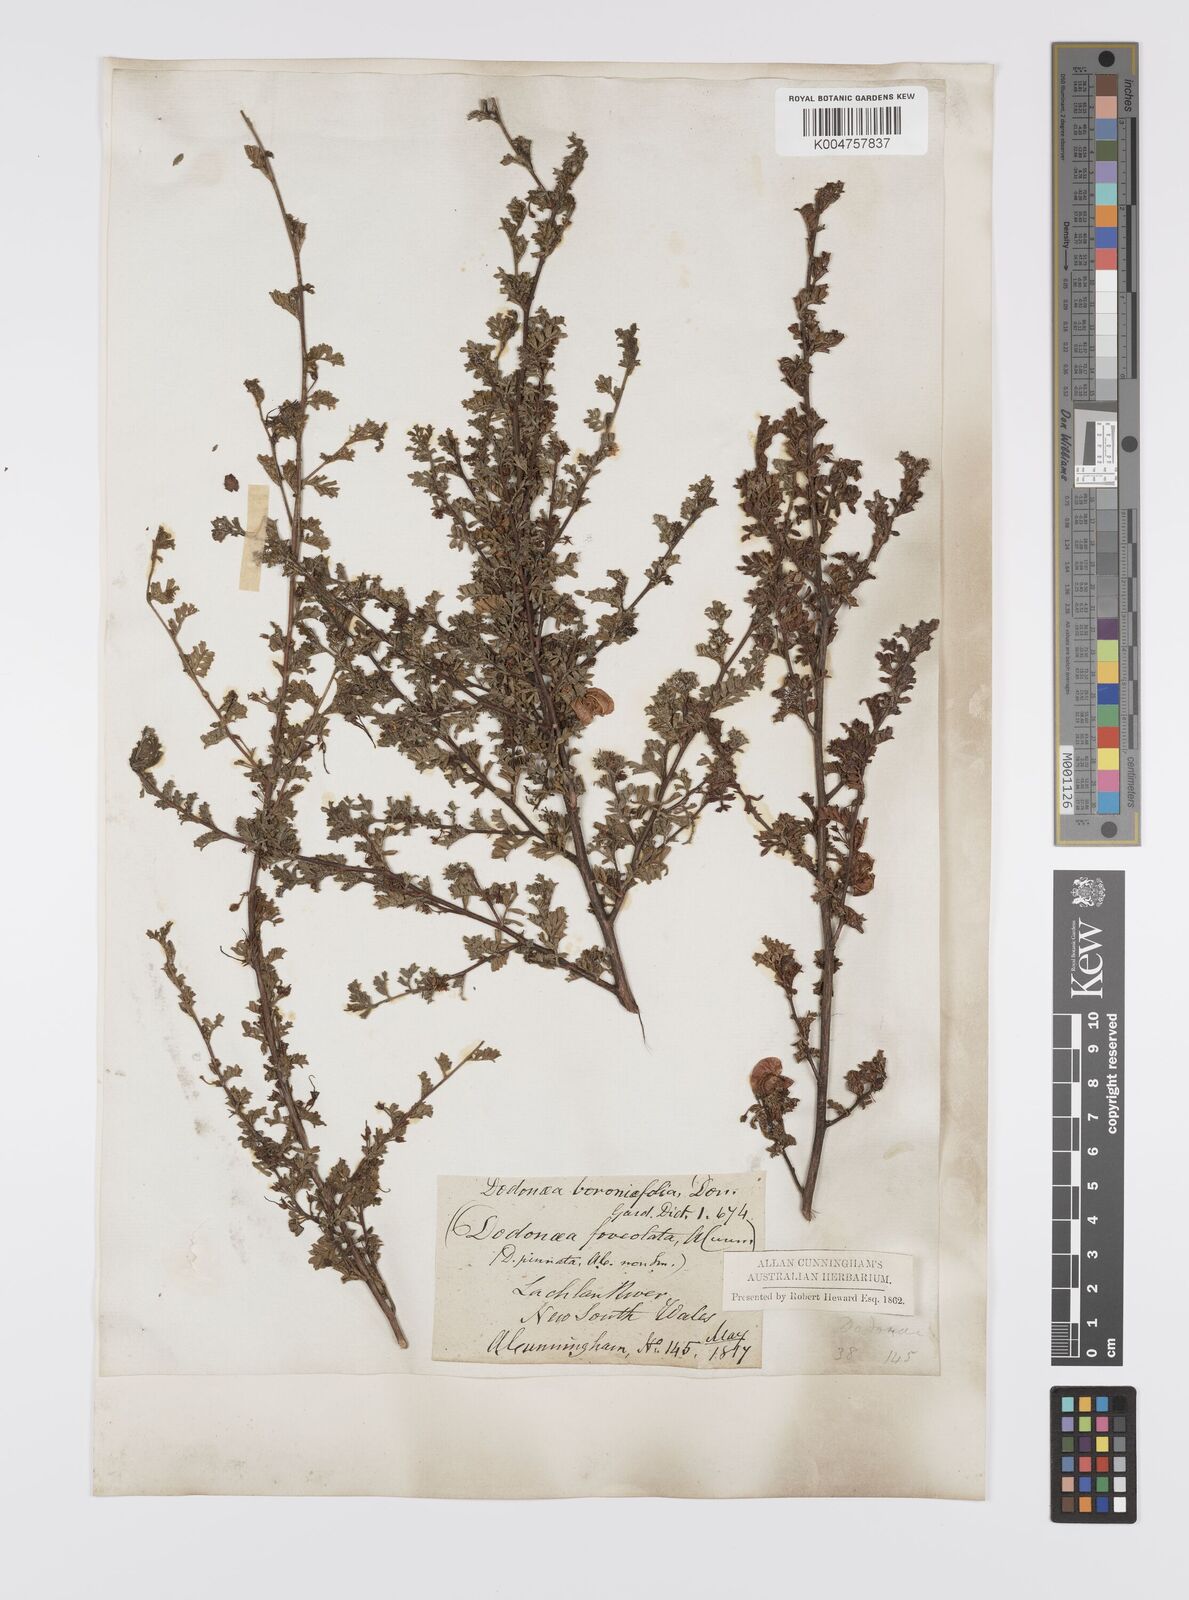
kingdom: Plantae
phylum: Tracheophyta
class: Magnoliopsida
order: Sapindales
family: Sapindaceae
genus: Dodonaea
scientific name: Dodonaea boroniifolia
